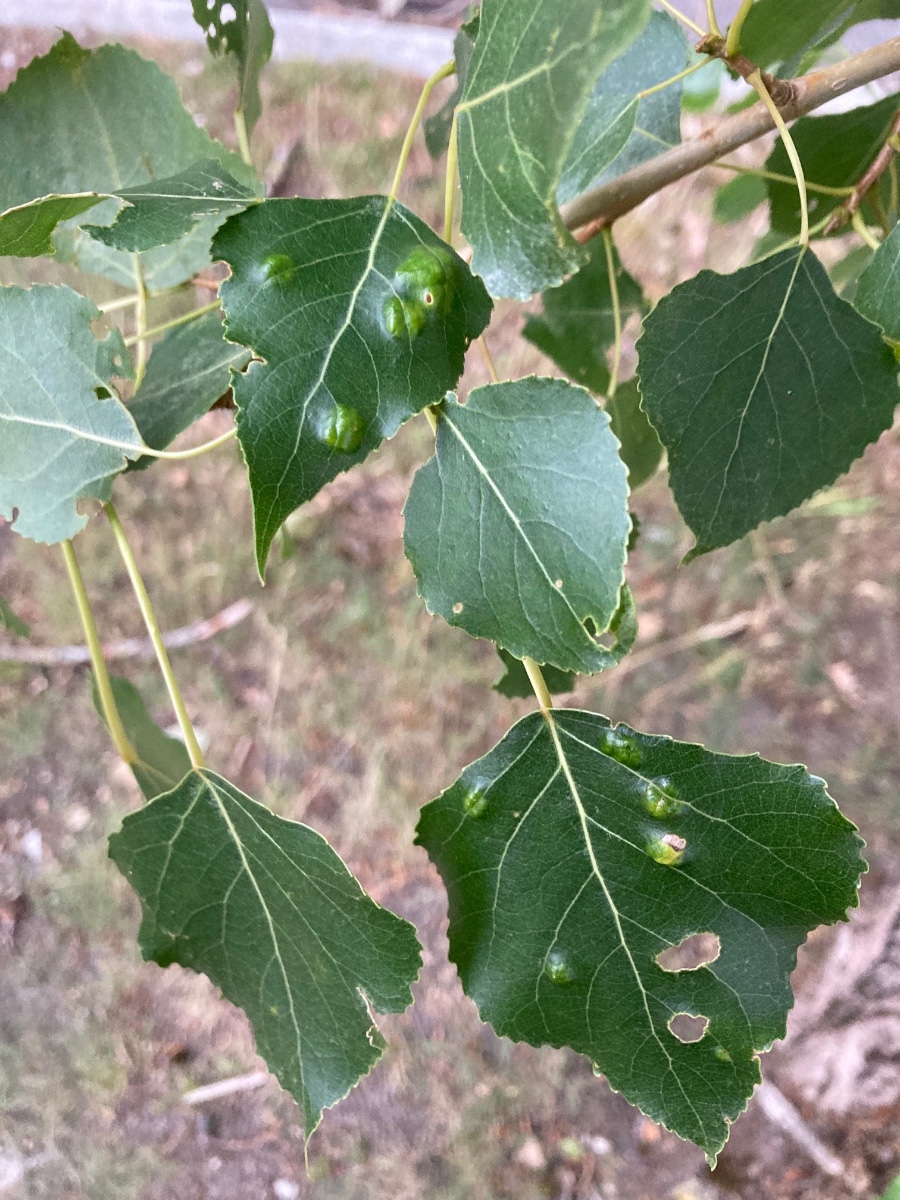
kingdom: Fungi
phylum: Ascomycota
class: Taphrinomycetes
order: Taphrinales
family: Taphrinaceae
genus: Taphrina
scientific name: Taphrina populina
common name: Poplar leaf curl
